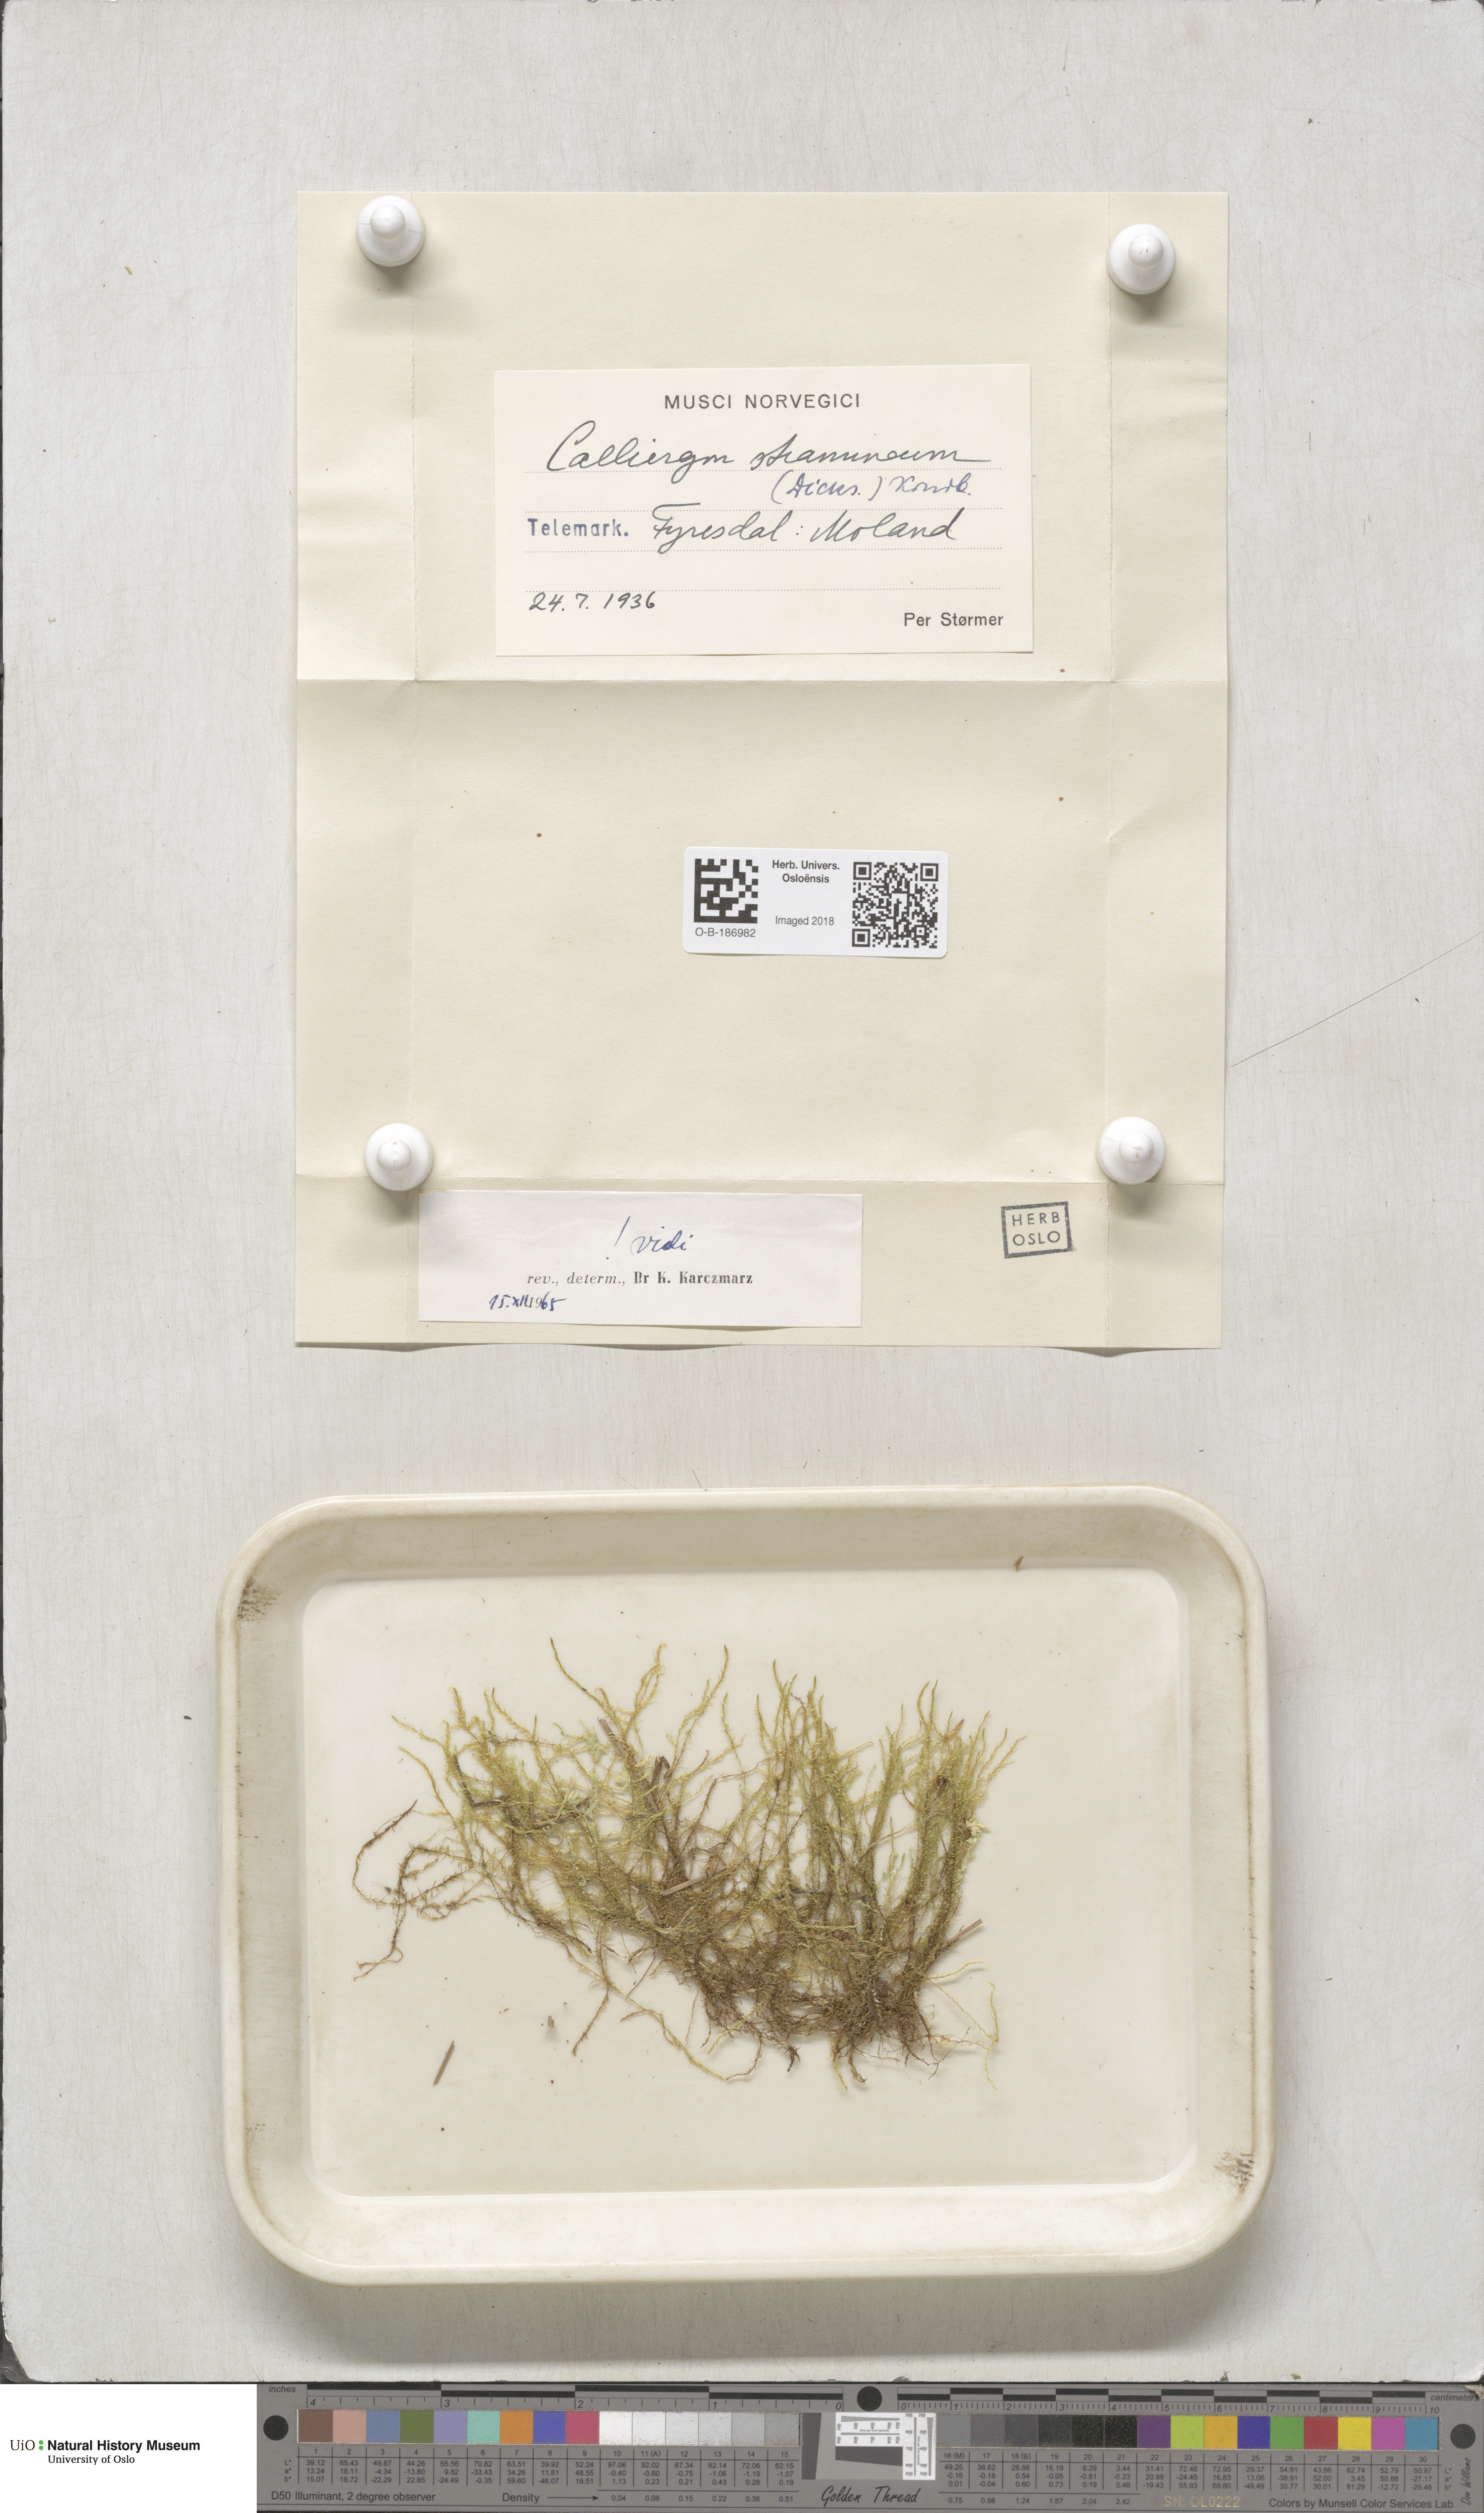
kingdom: Plantae
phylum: Bryophyta
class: Bryopsida
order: Hypnales
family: Calliergonaceae
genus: Straminergon
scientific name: Straminergon stramineum
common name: Straw moss
